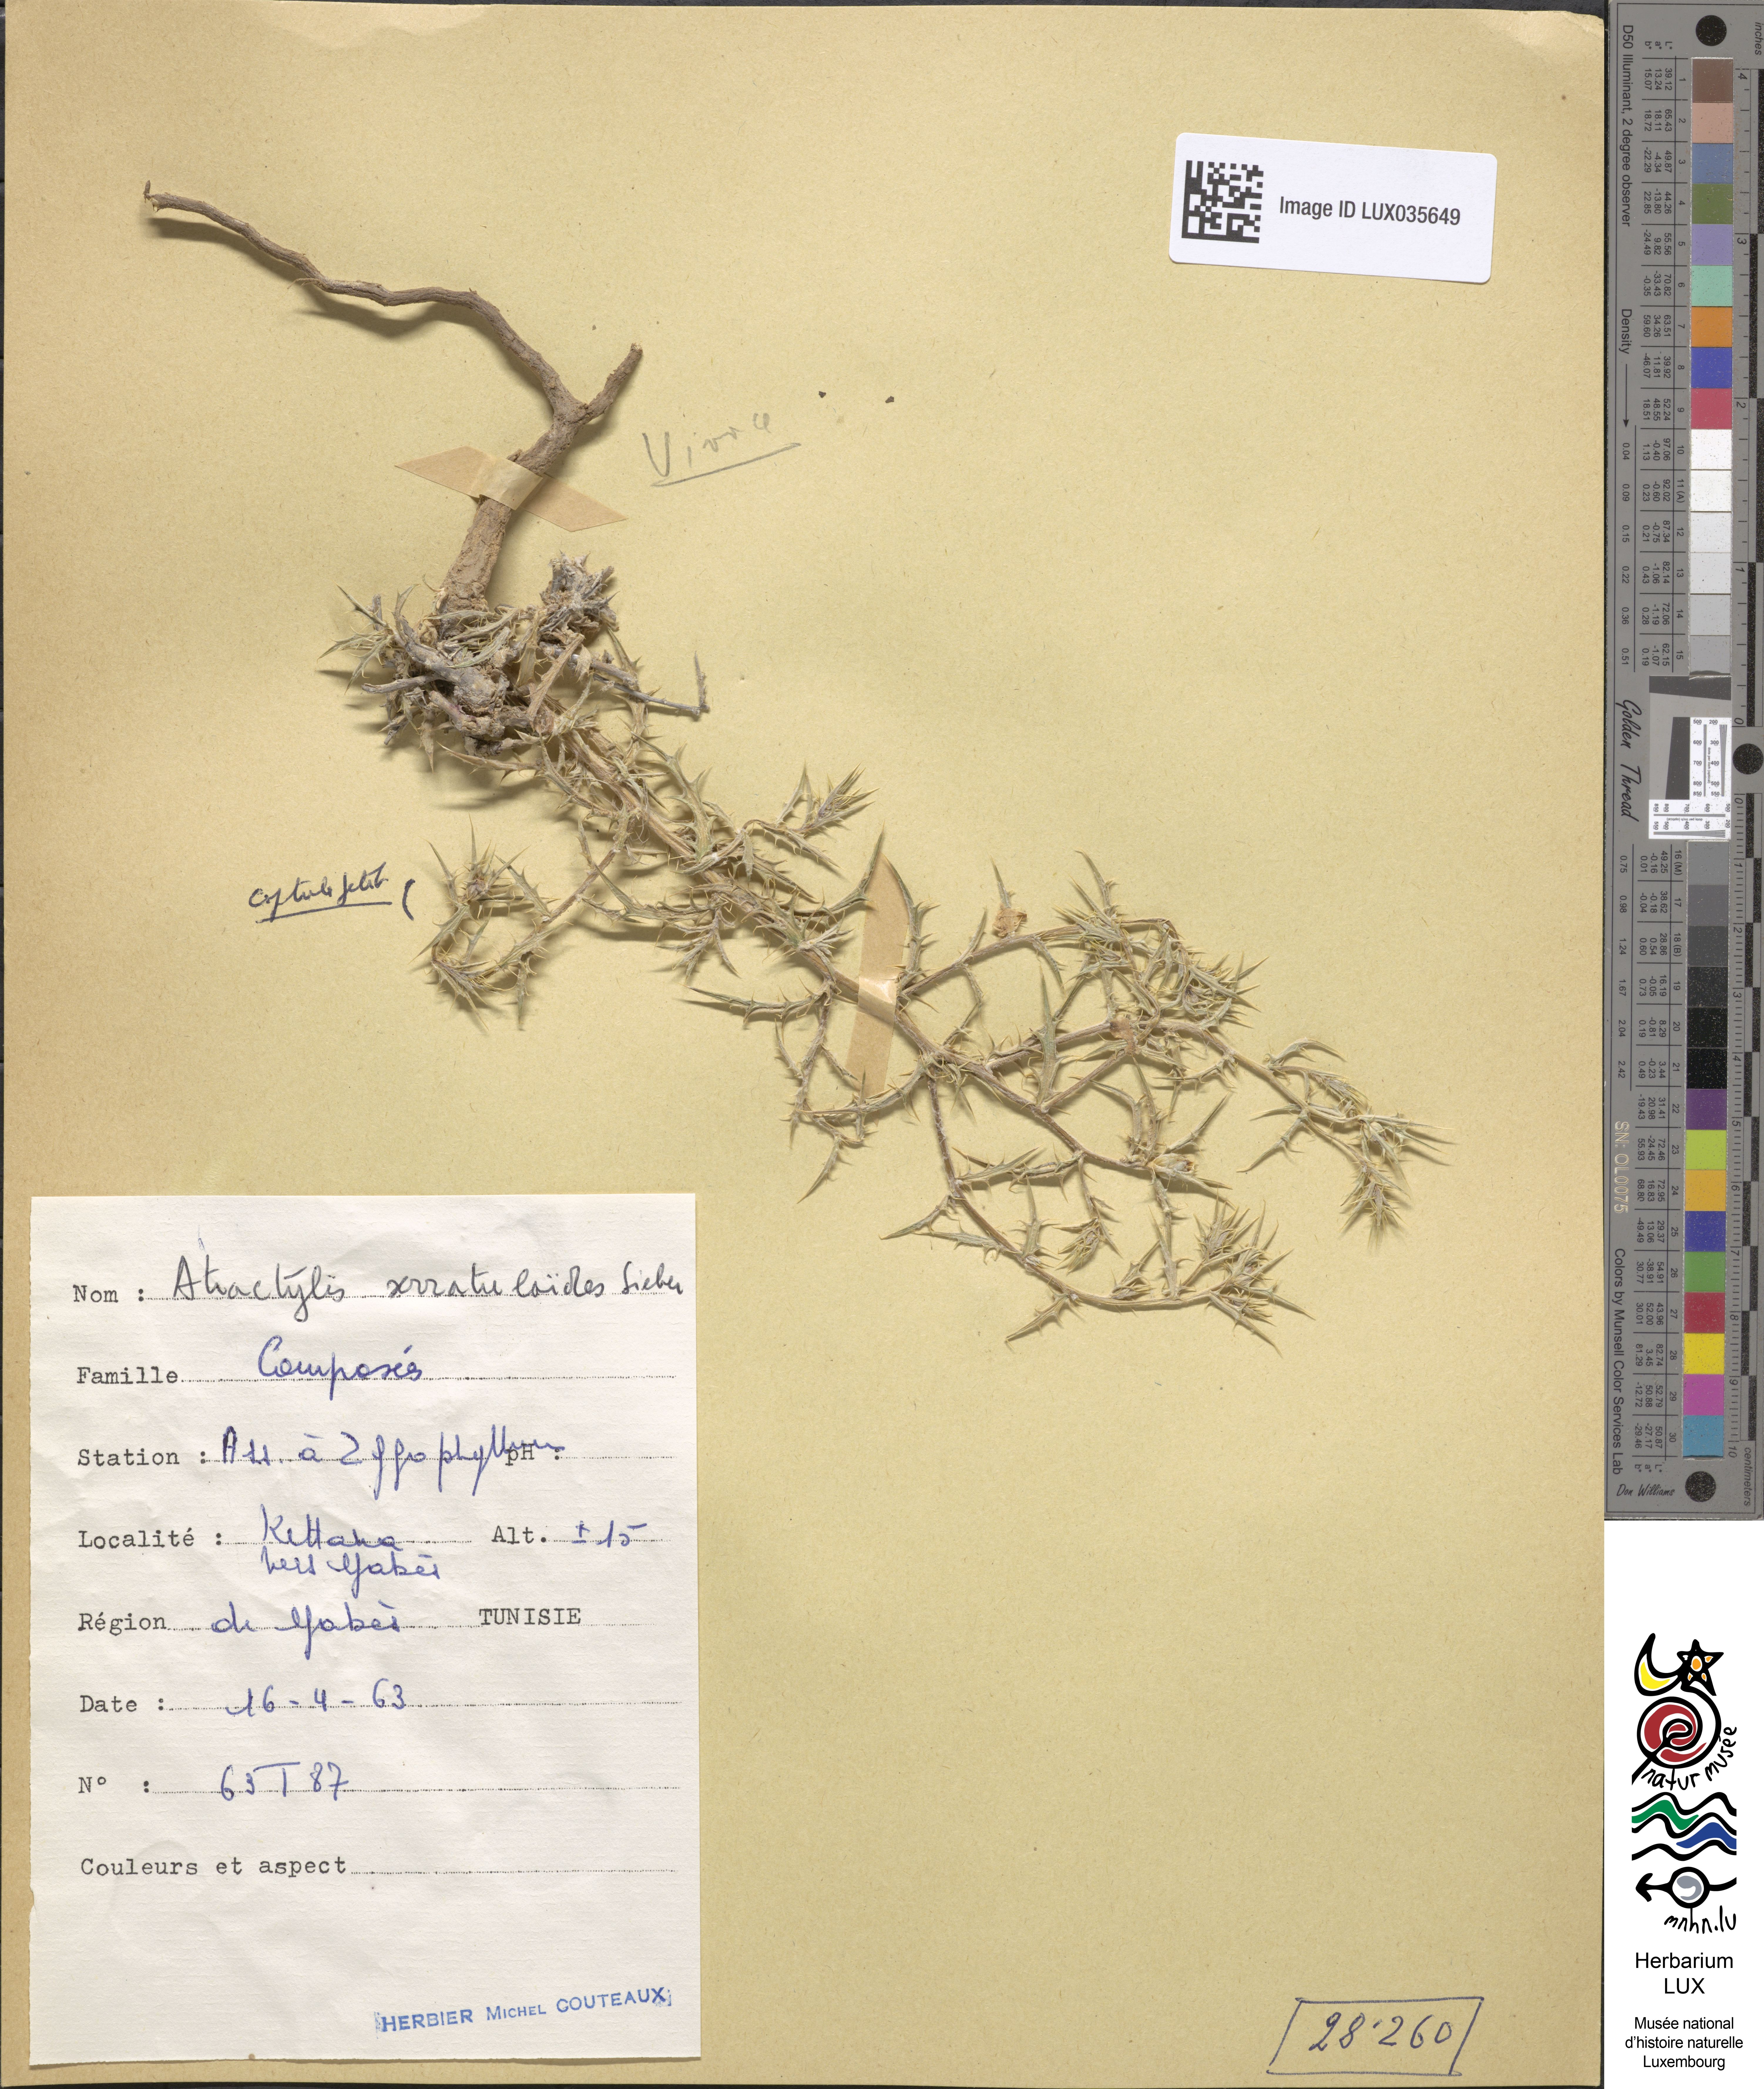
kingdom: Plantae
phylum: Tracheophyta
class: Magnoliopsida
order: Asterales
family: Asteraceae
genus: Atractylis
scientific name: Atractylis serratuloides
